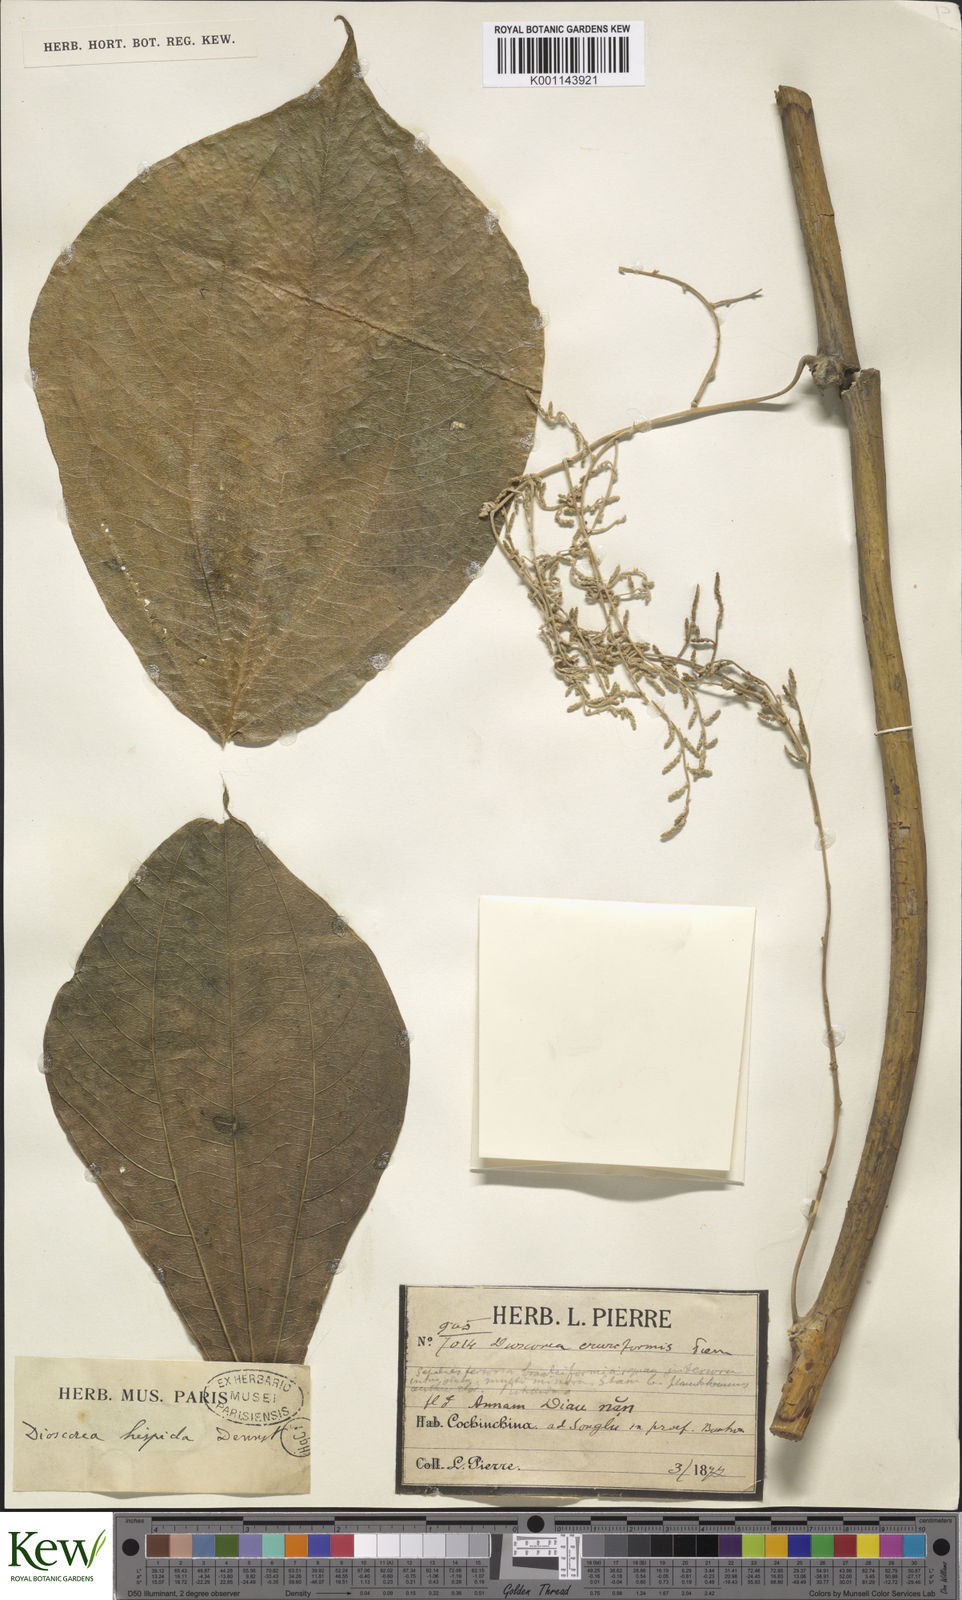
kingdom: Plantae
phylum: Tracheophyta
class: Liliopsida
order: Dioscoreales
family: Dioscoreaceae
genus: Dioscorea
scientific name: Dioscorea hispida
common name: Asiatic bitter yam
